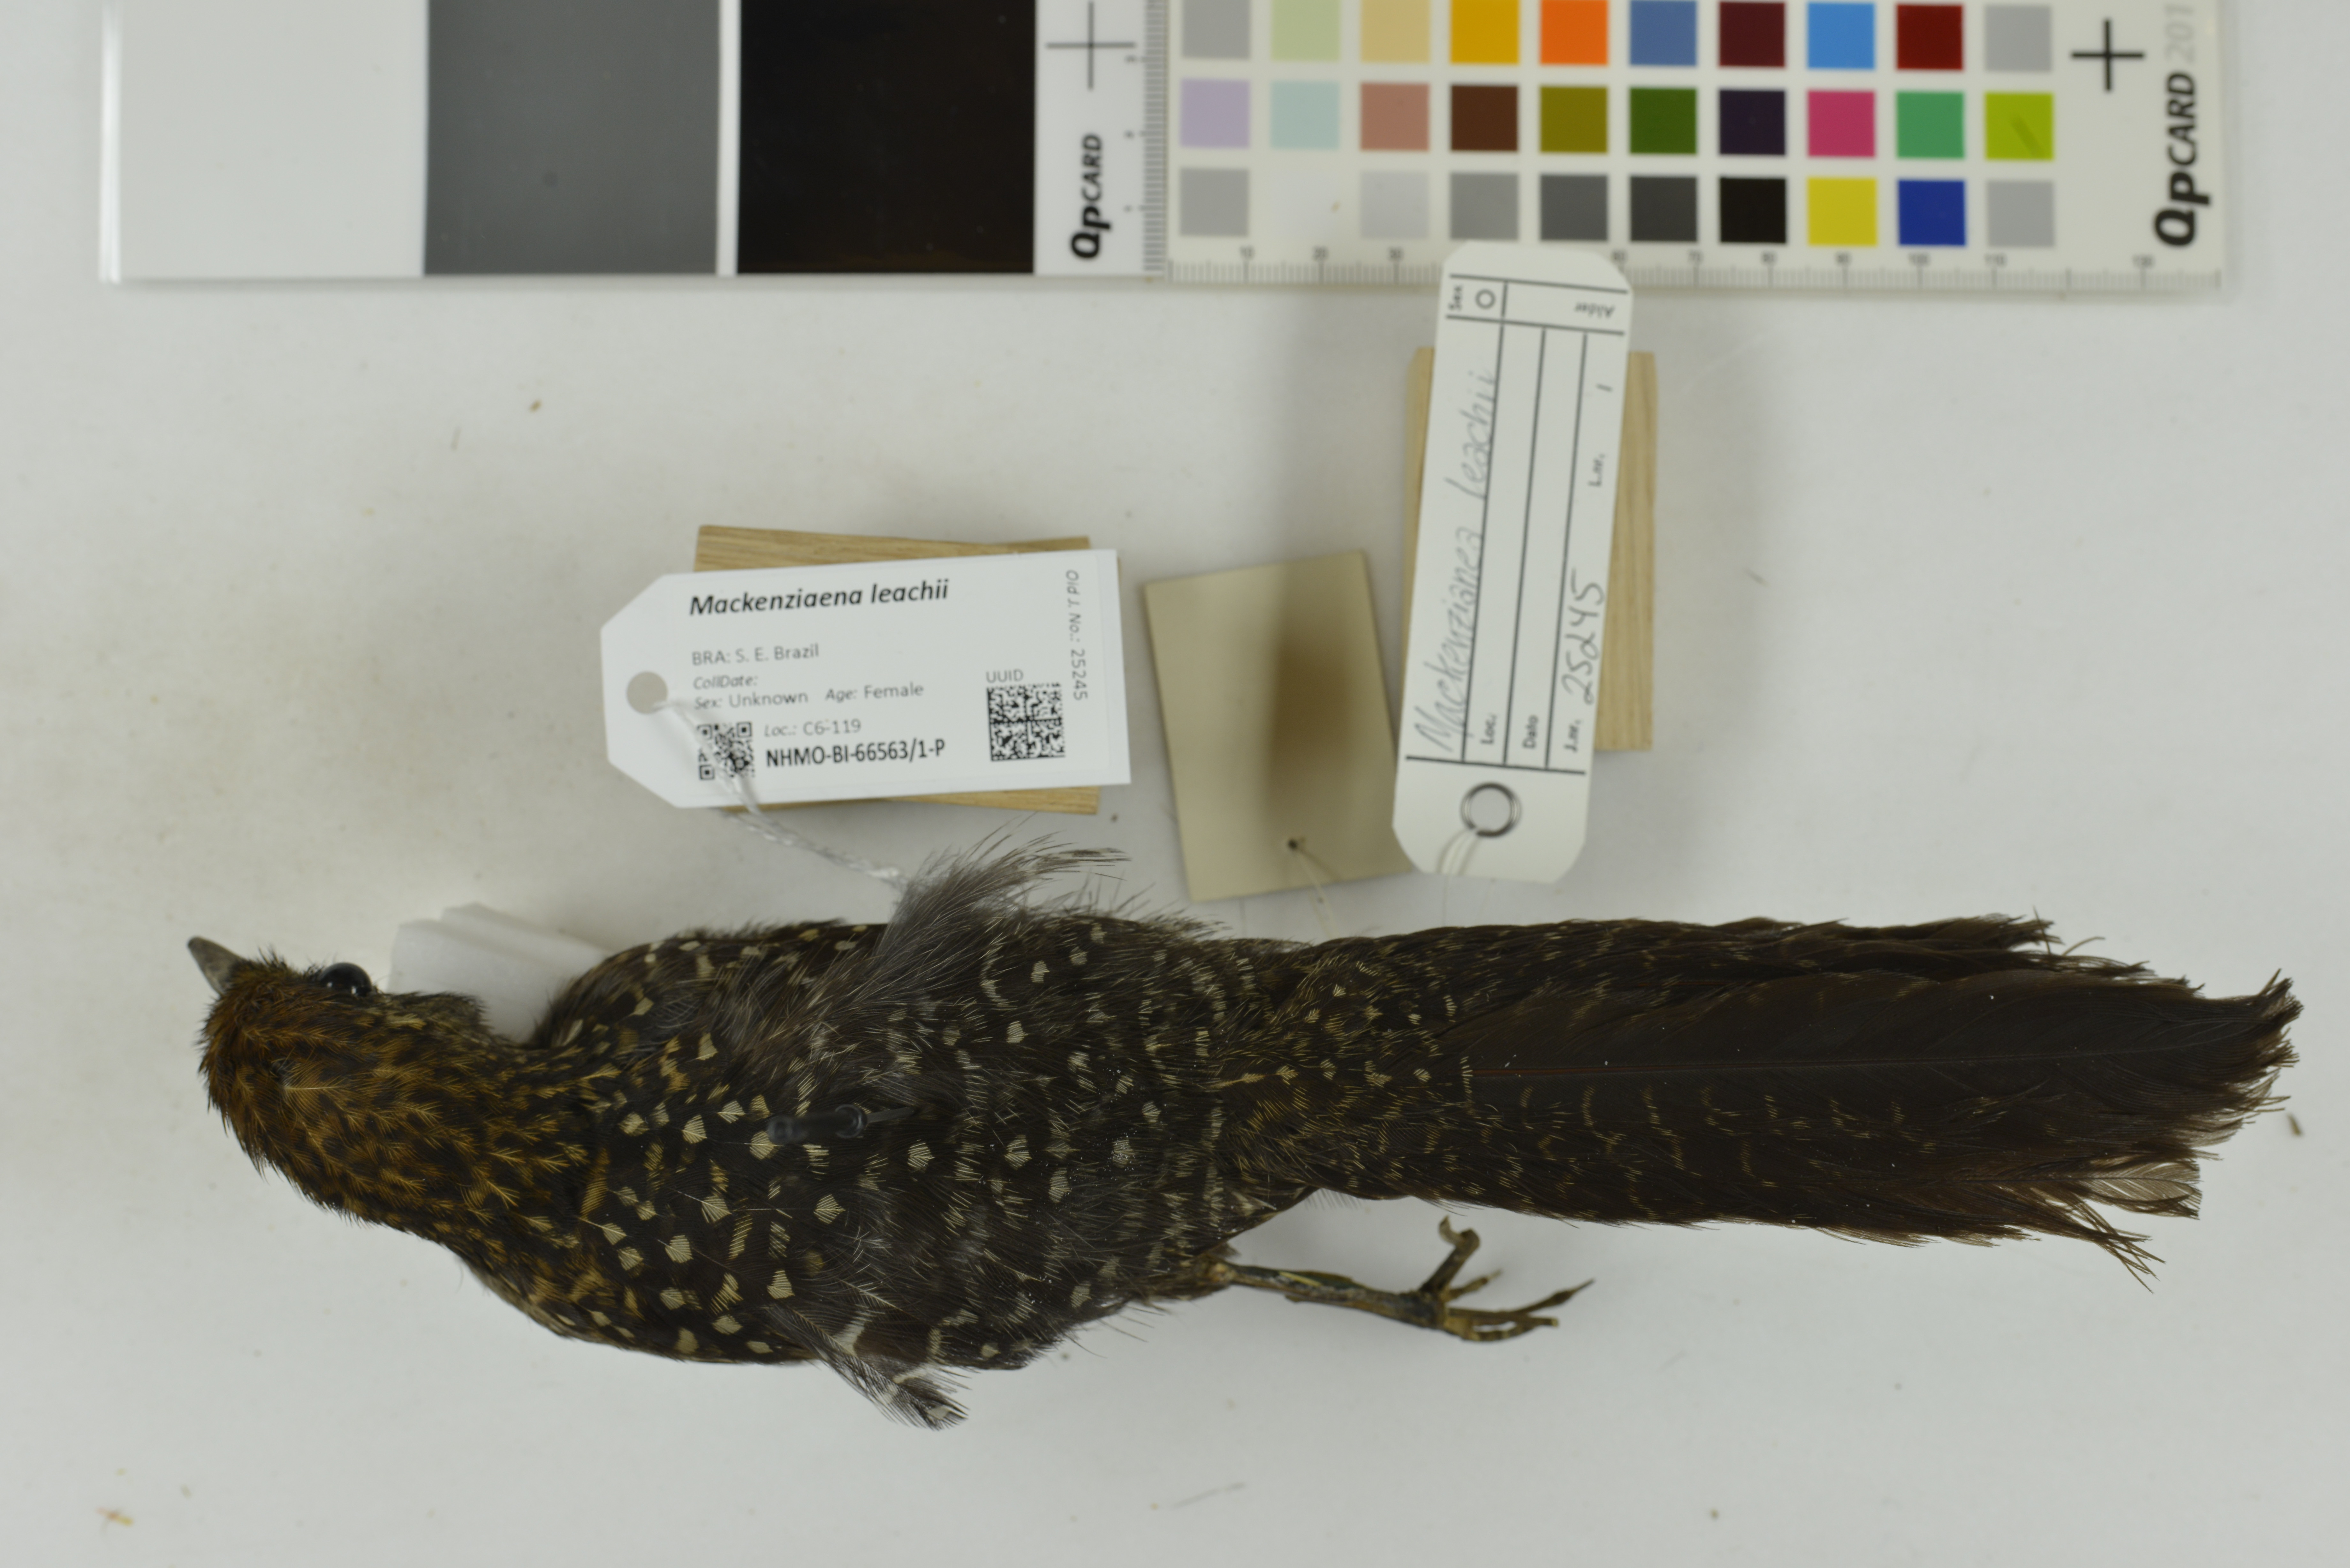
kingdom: Animalia
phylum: Chordata
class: Aves
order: Passeriformes
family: Thamnophilidae
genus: Mackenziaena
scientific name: Mackenziaena leachii
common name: Large-tailed antshrike
